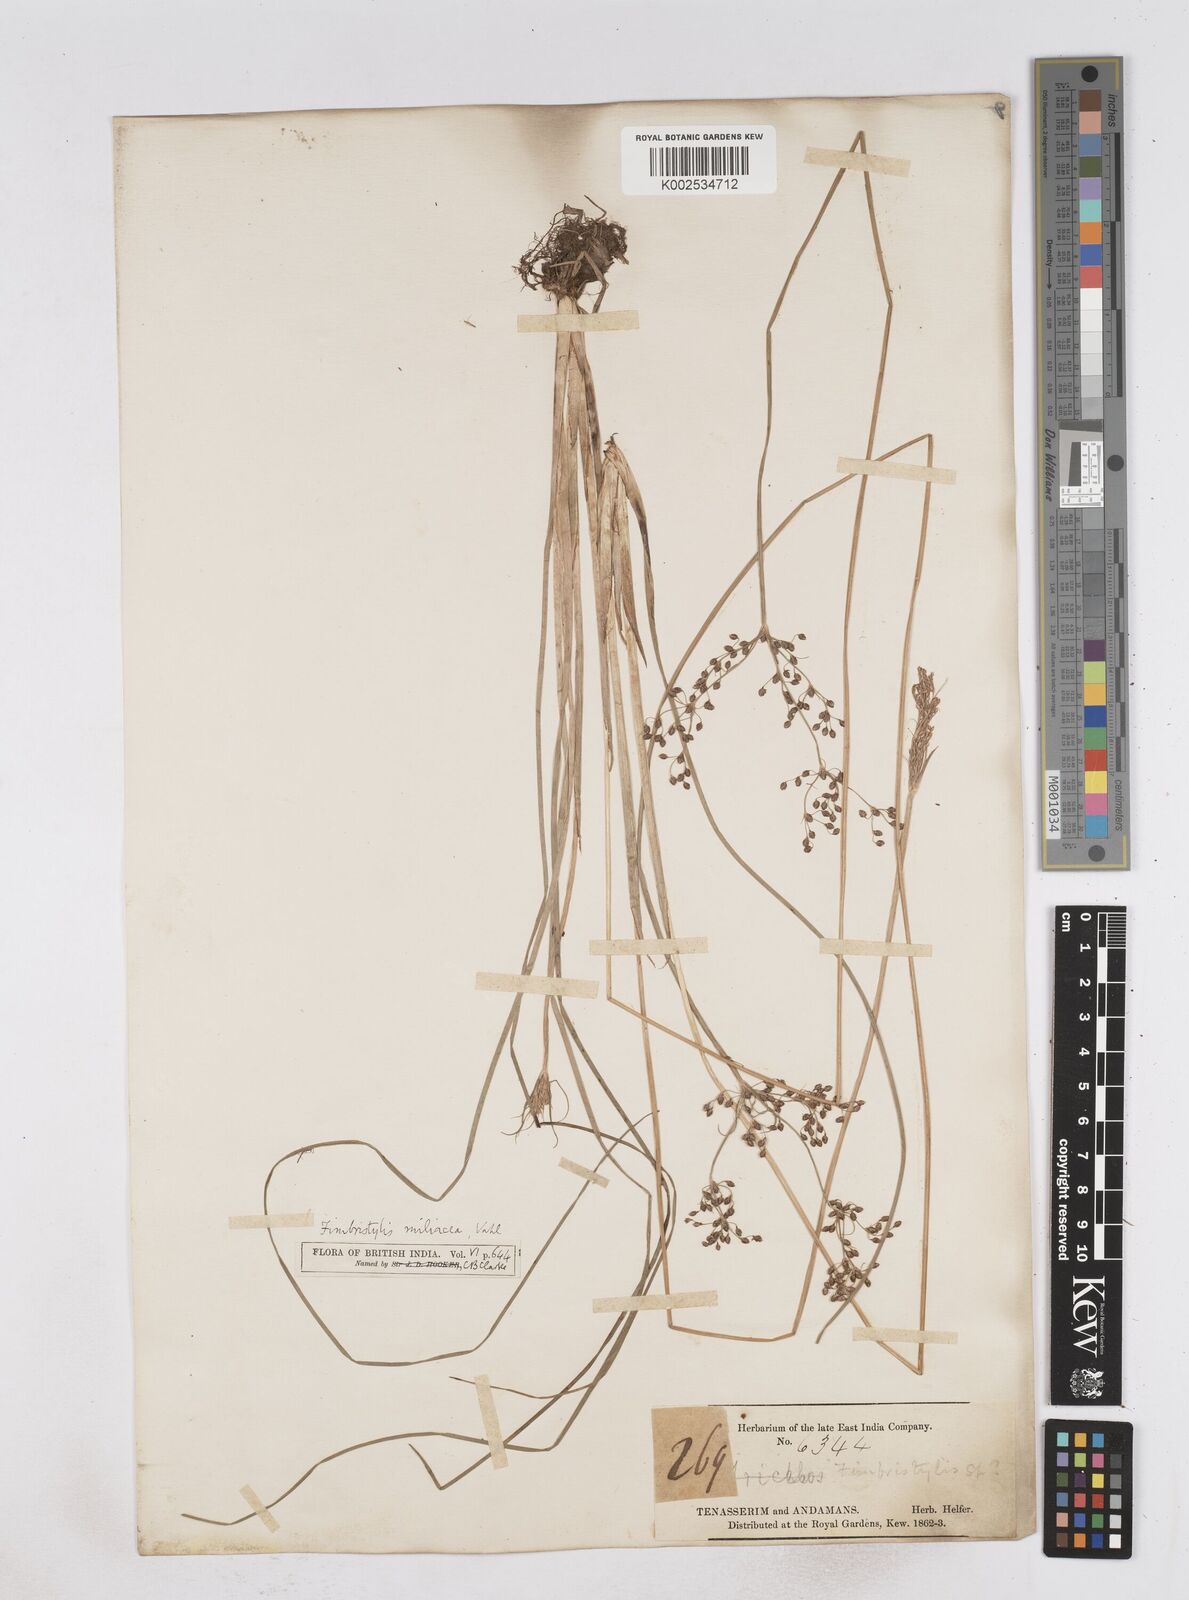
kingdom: Plantae
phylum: Tracheophyta
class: Liliopsida
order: Poales
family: Cyperaceae
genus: Fimbristylis
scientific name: Fimbristylis littoralis
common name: Fimbry
